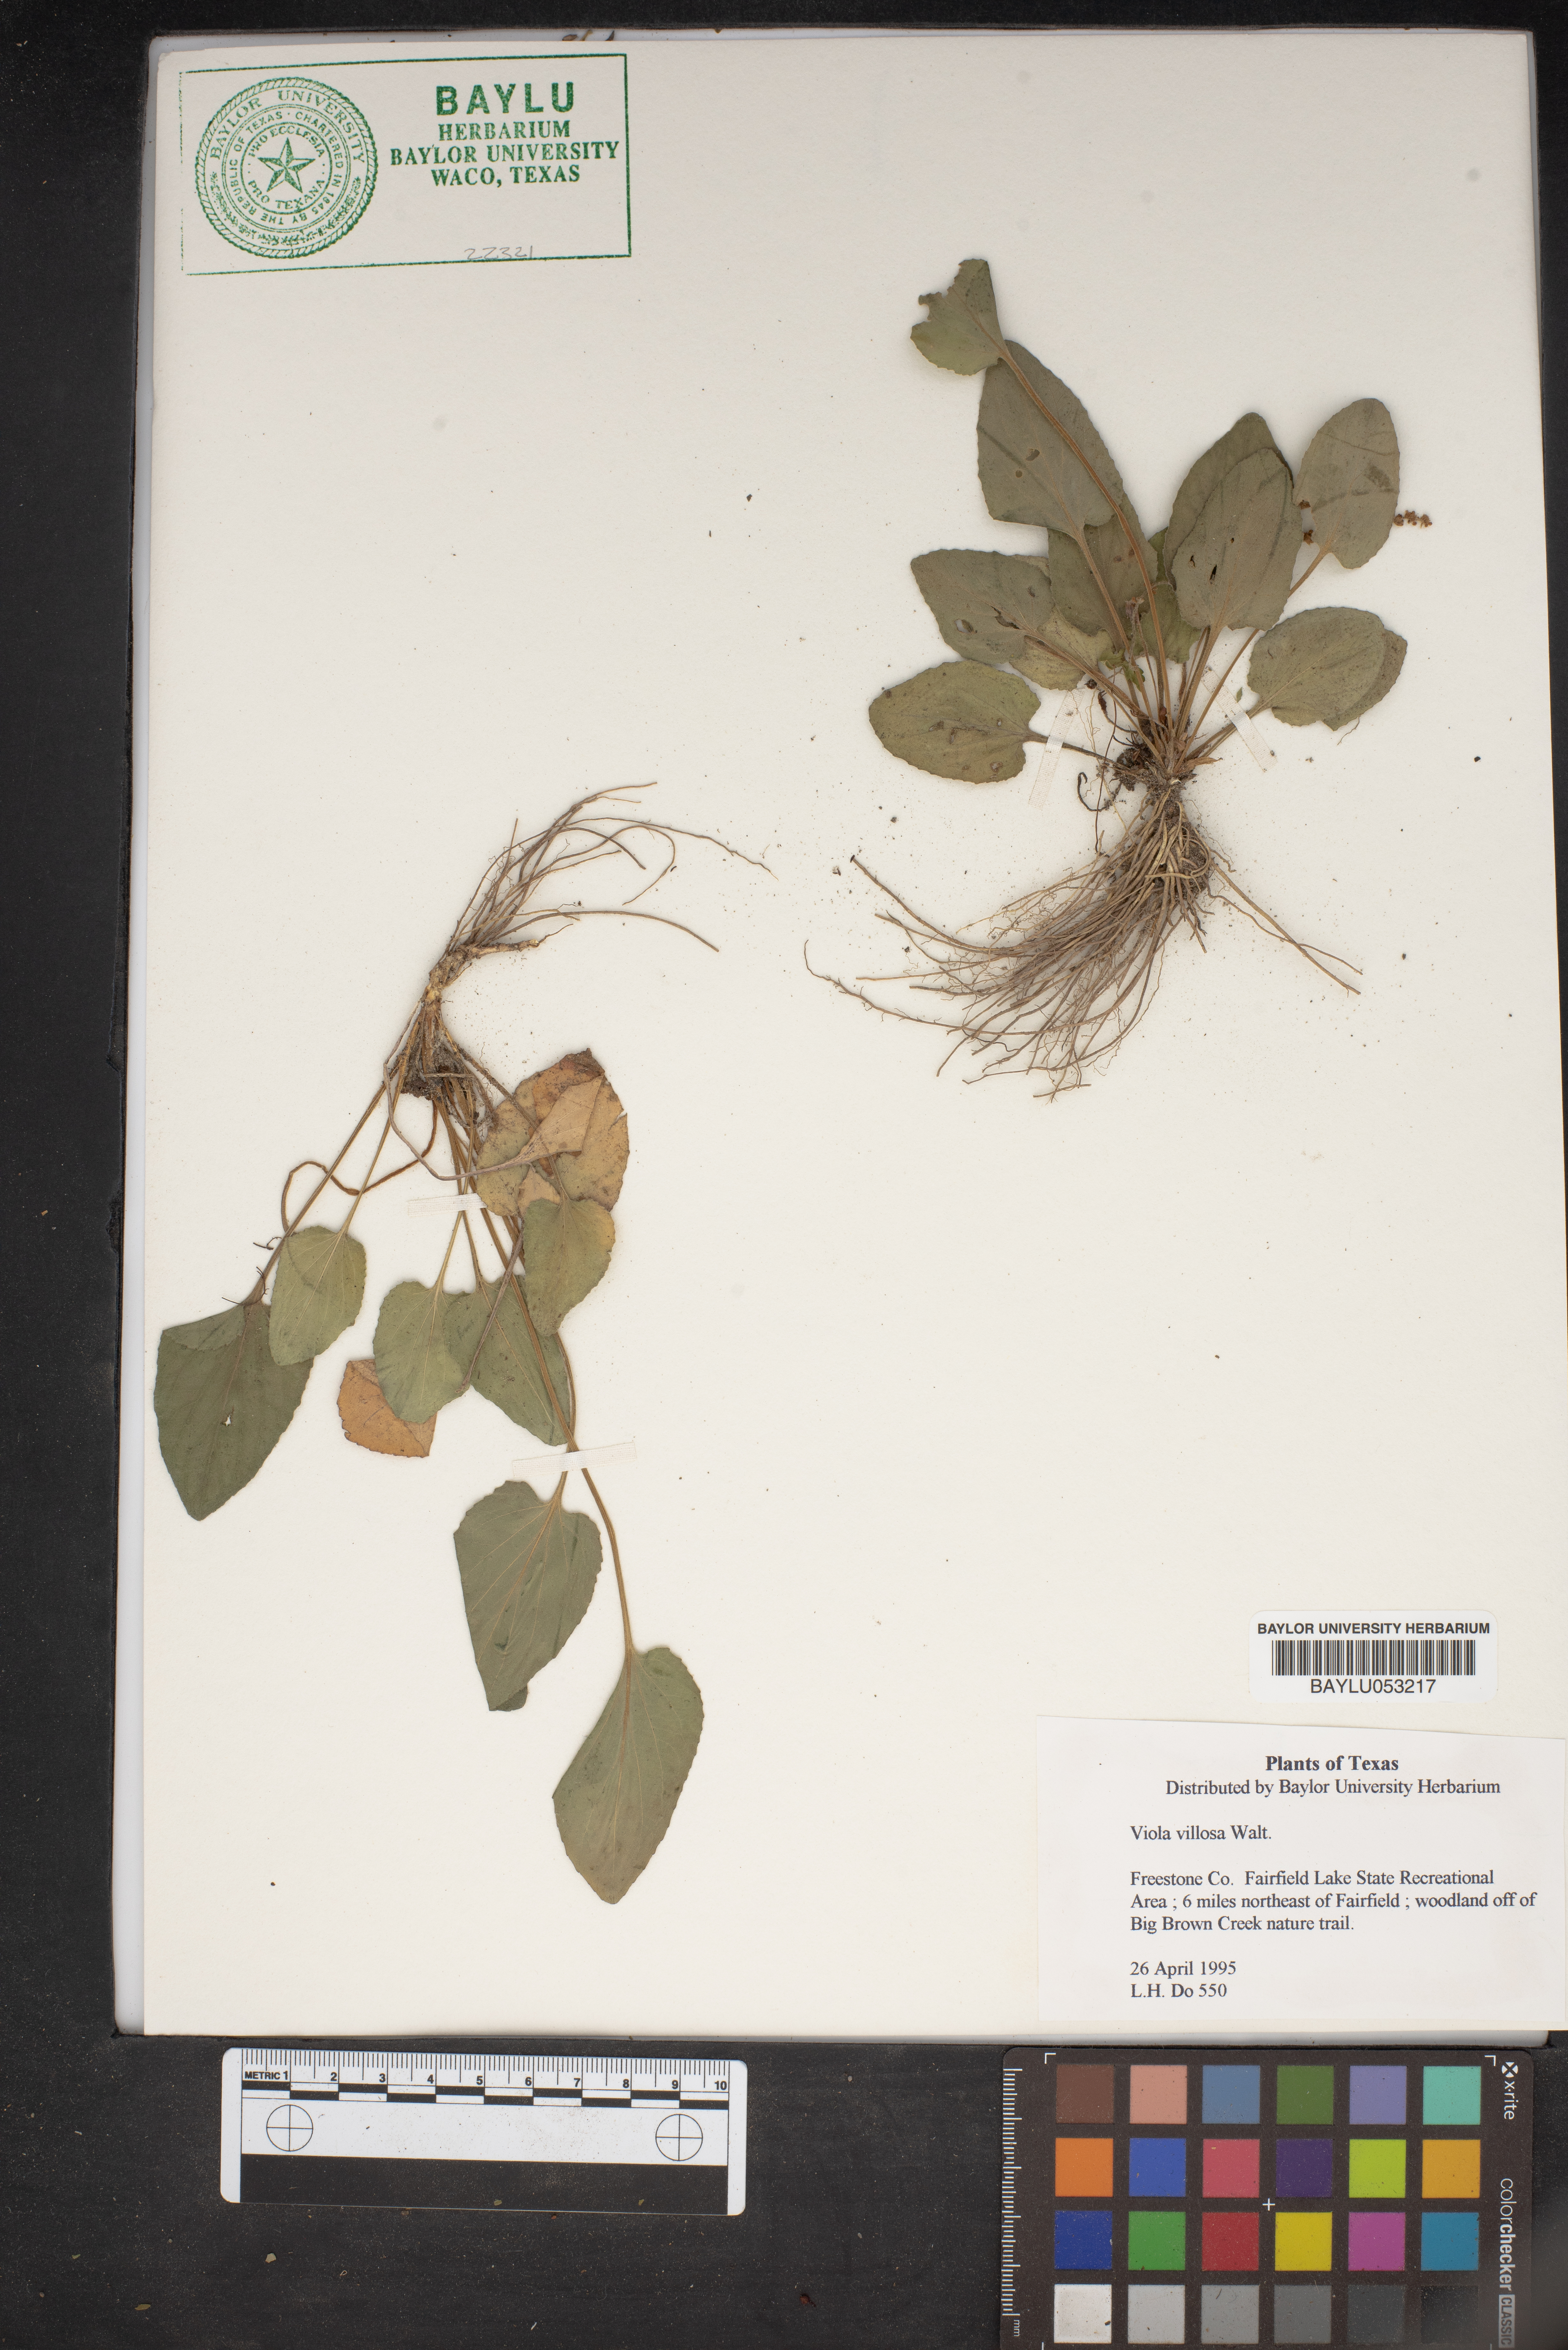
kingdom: Plantae
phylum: Tracheophyta
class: Magnoliopsida
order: Malpighiales
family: Violaceae
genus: Viola
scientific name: Viola villosa
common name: Carolina violet
